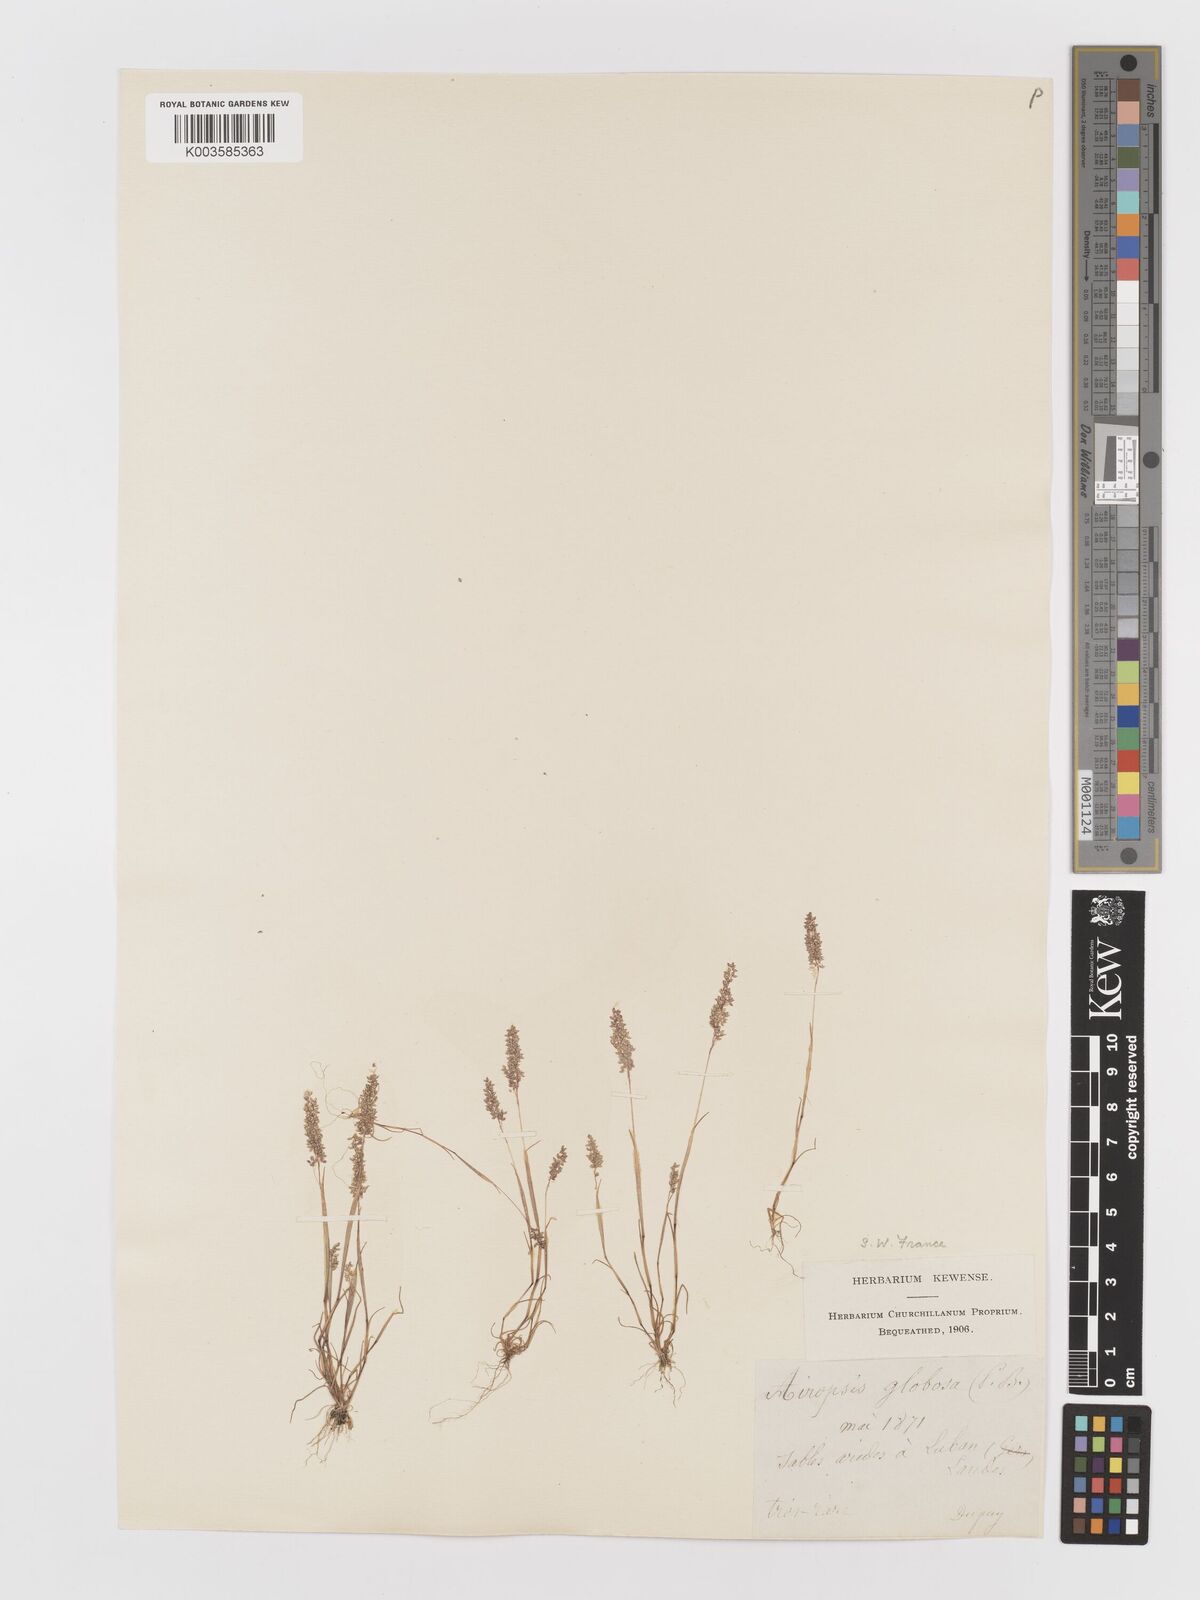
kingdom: Plantae
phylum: Tracheophyta
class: Liliopsida
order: Poales
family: Poaceae
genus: Airopsis
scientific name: Airopsis tenella
